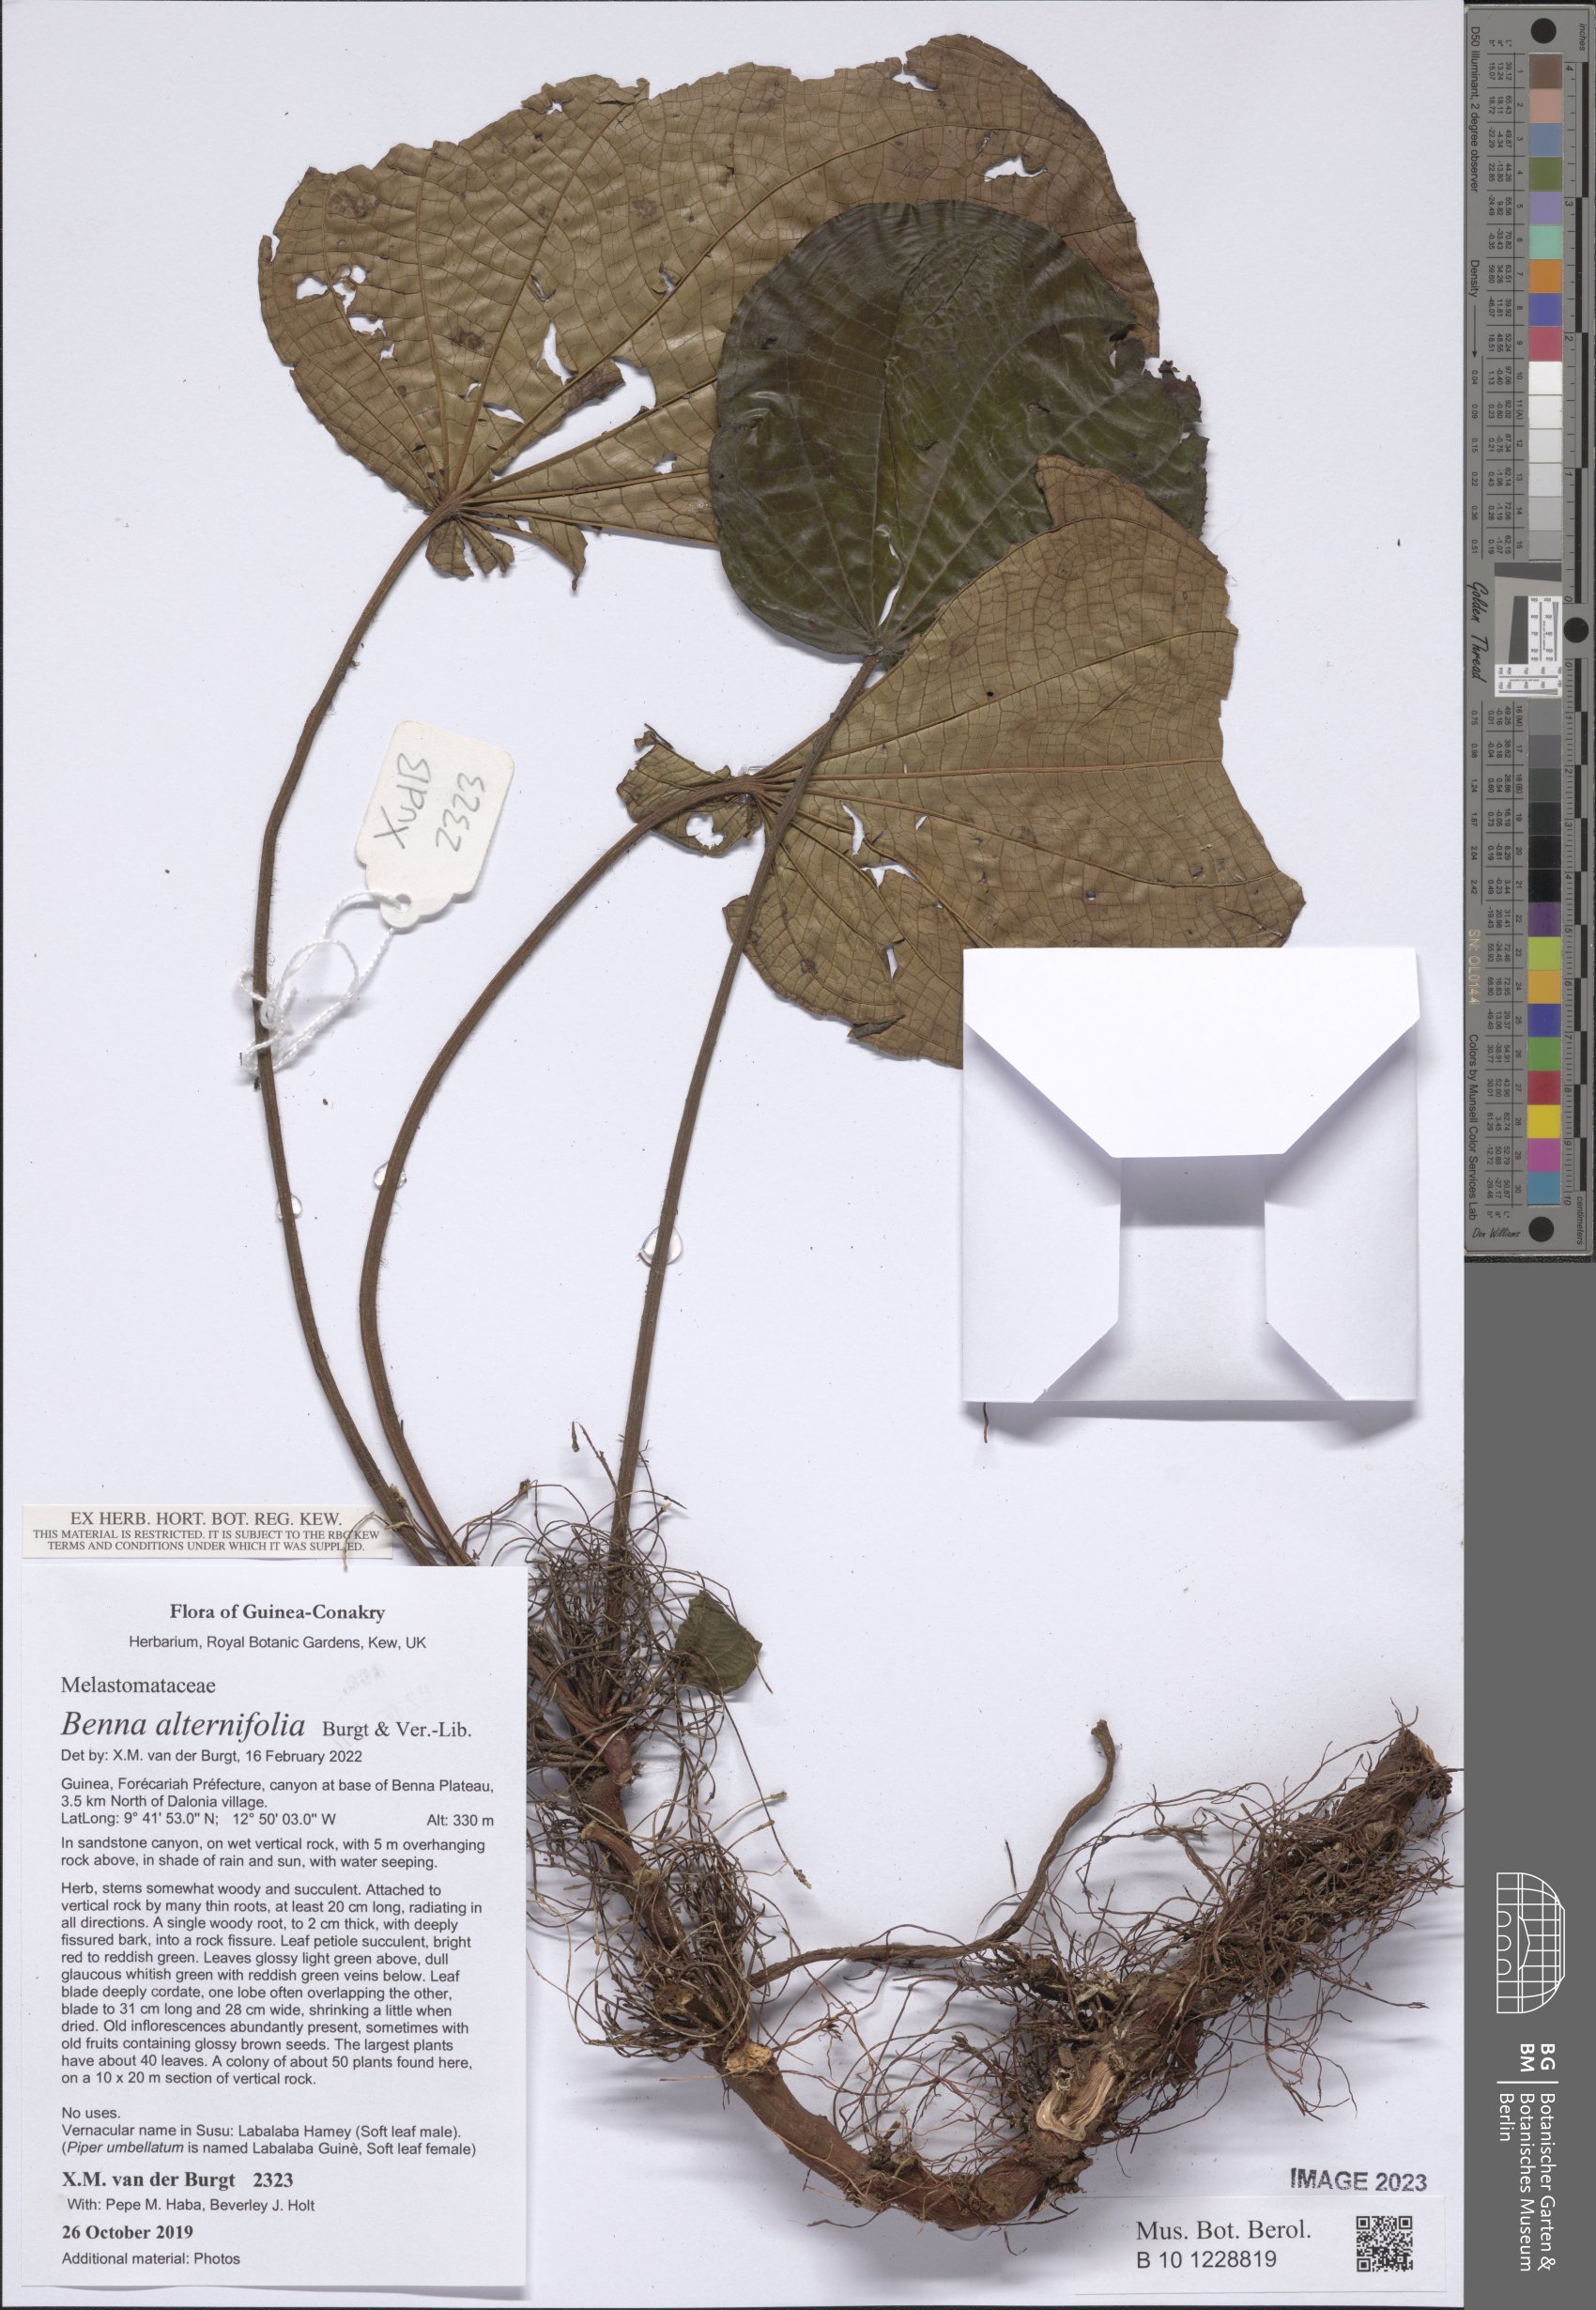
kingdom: Plantae
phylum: Tracheophyta
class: Magnoliopsida
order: Myrtales
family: Melastomataceae
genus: Benna
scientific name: Benna alternifolia
